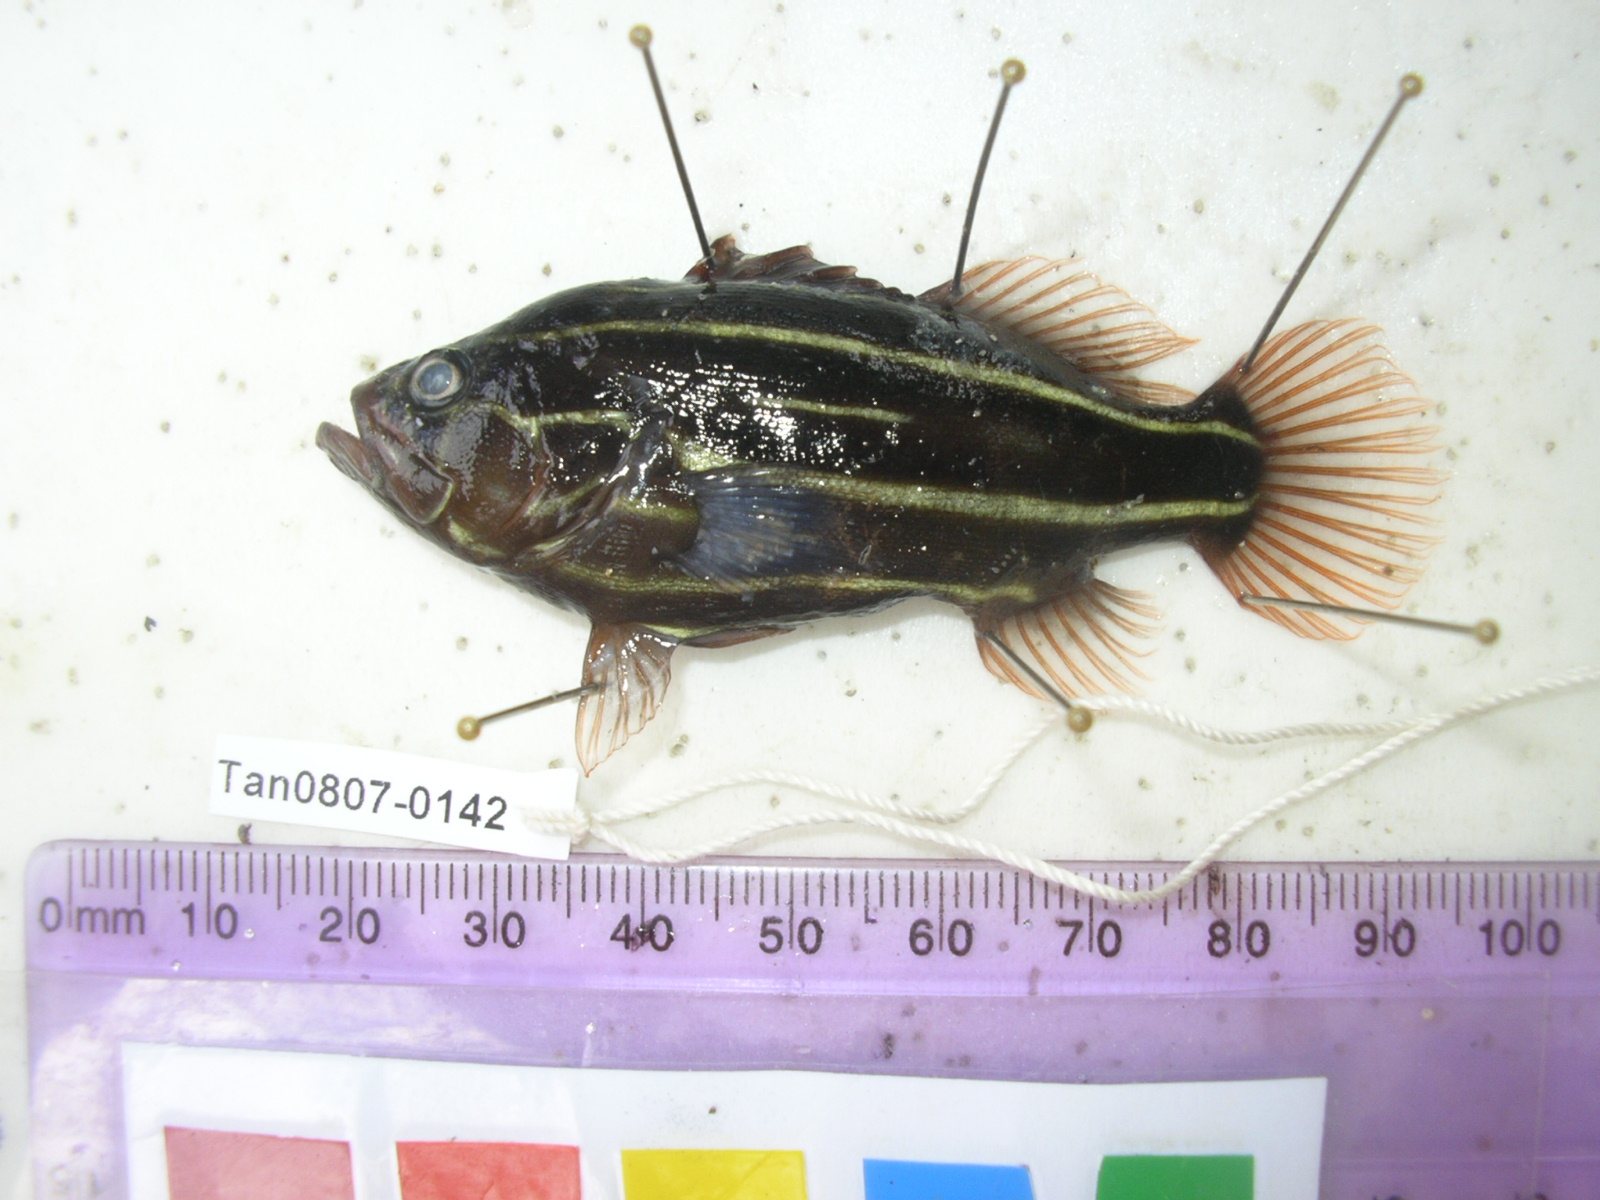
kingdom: Animalia
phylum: Chordata
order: Perciformes
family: Serranidae
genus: Grammistes
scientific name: Grammistes sexlineatus
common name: Sixline soapfish
